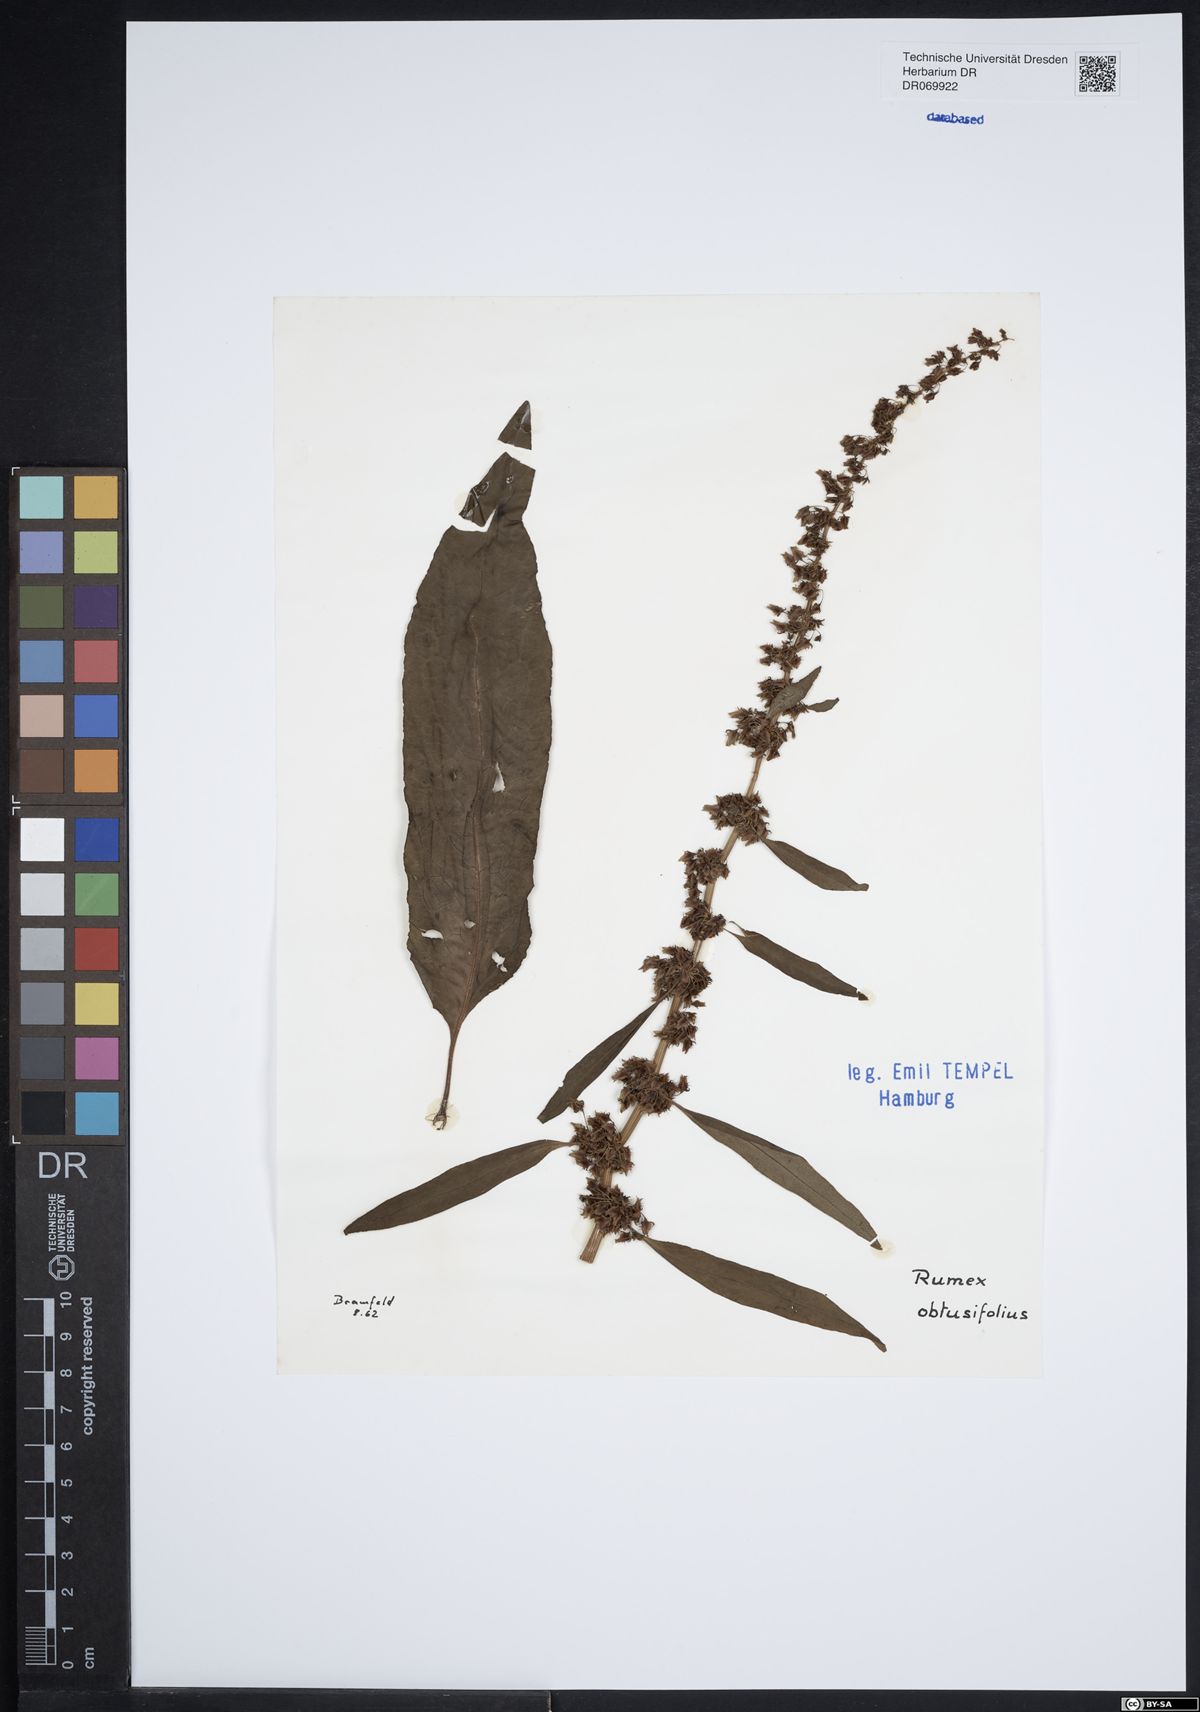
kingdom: Plantae
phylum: Tracheophyta
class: Magnoliopsida
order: Caryophyllales
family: Polygonaceae
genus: Rumex
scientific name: Rumex obtusifolius
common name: Bitter dock
